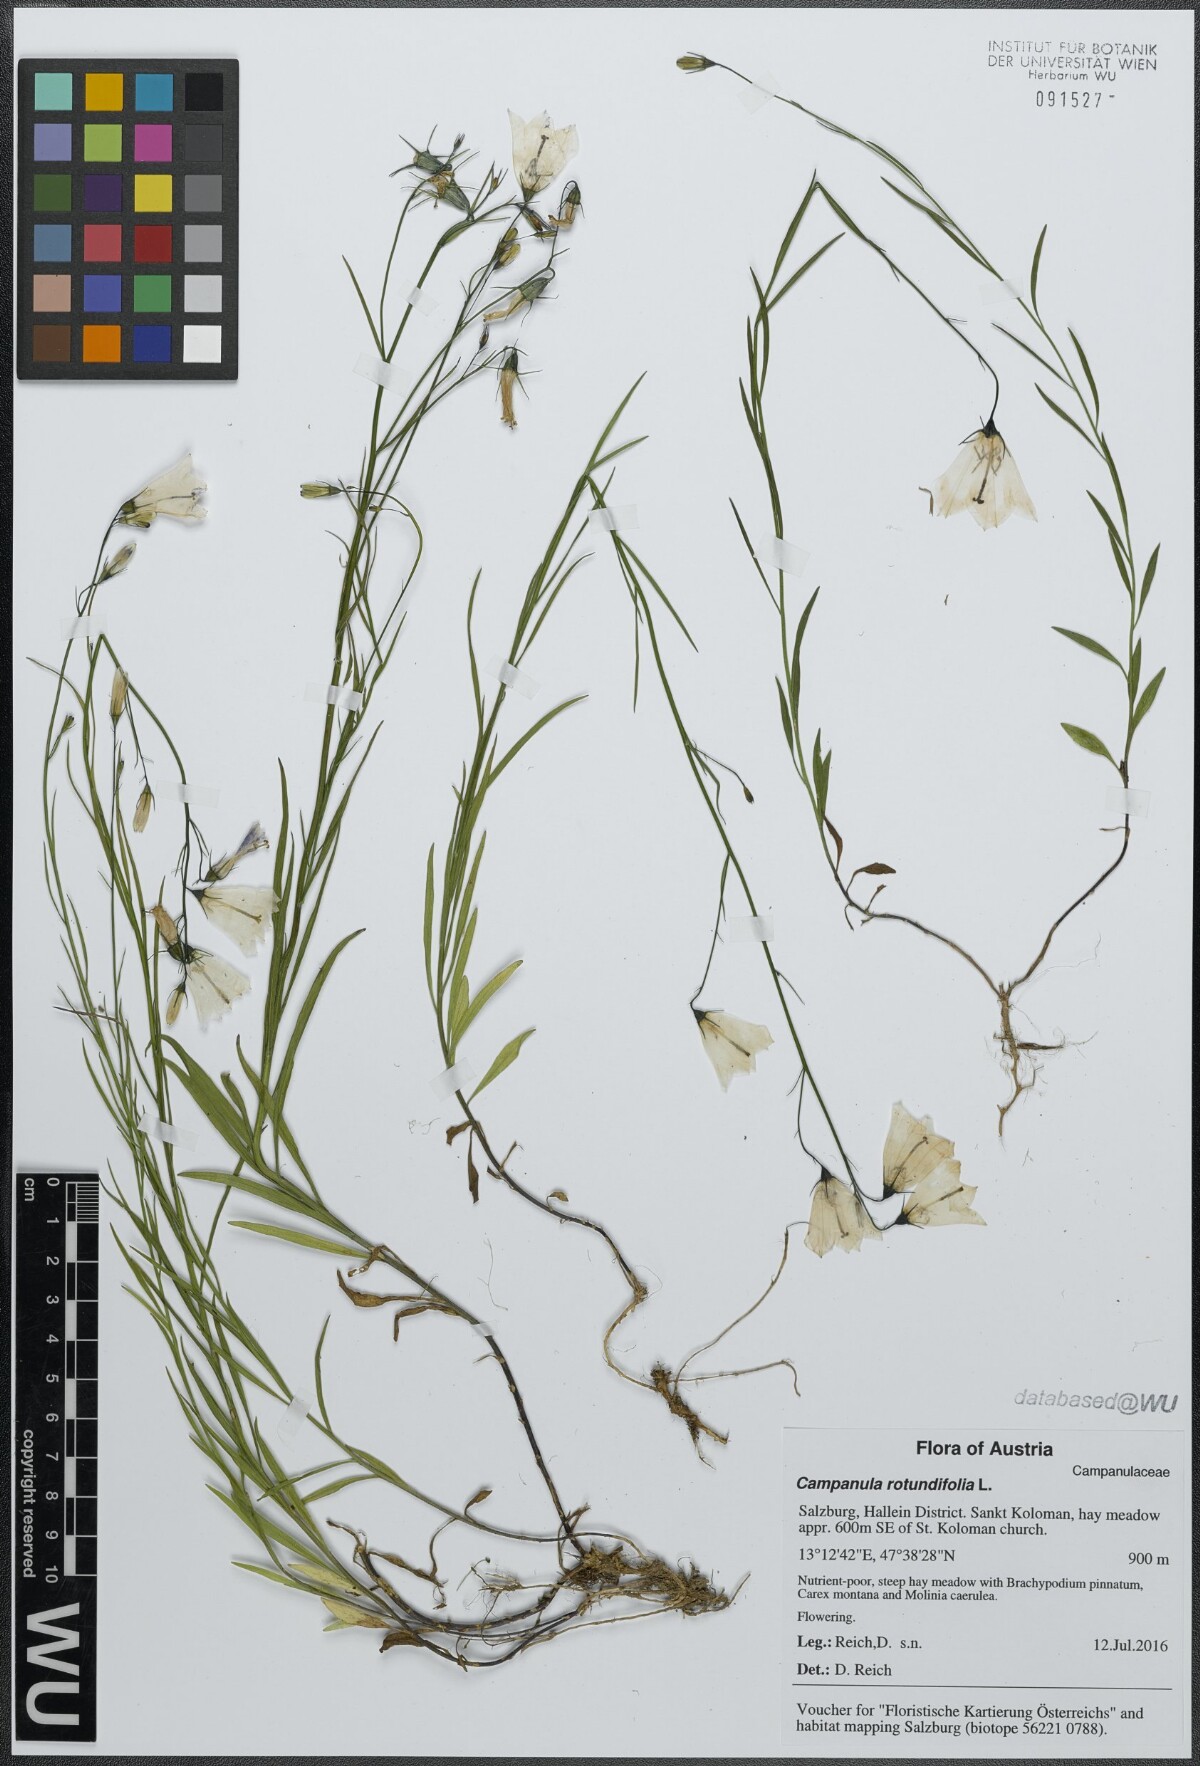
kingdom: Plantae
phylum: Tracheophyta
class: Magnoliopsida
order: Asterales
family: Campanulaceae
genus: Campanula
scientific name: Campanula rotundifolia
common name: Harebell
